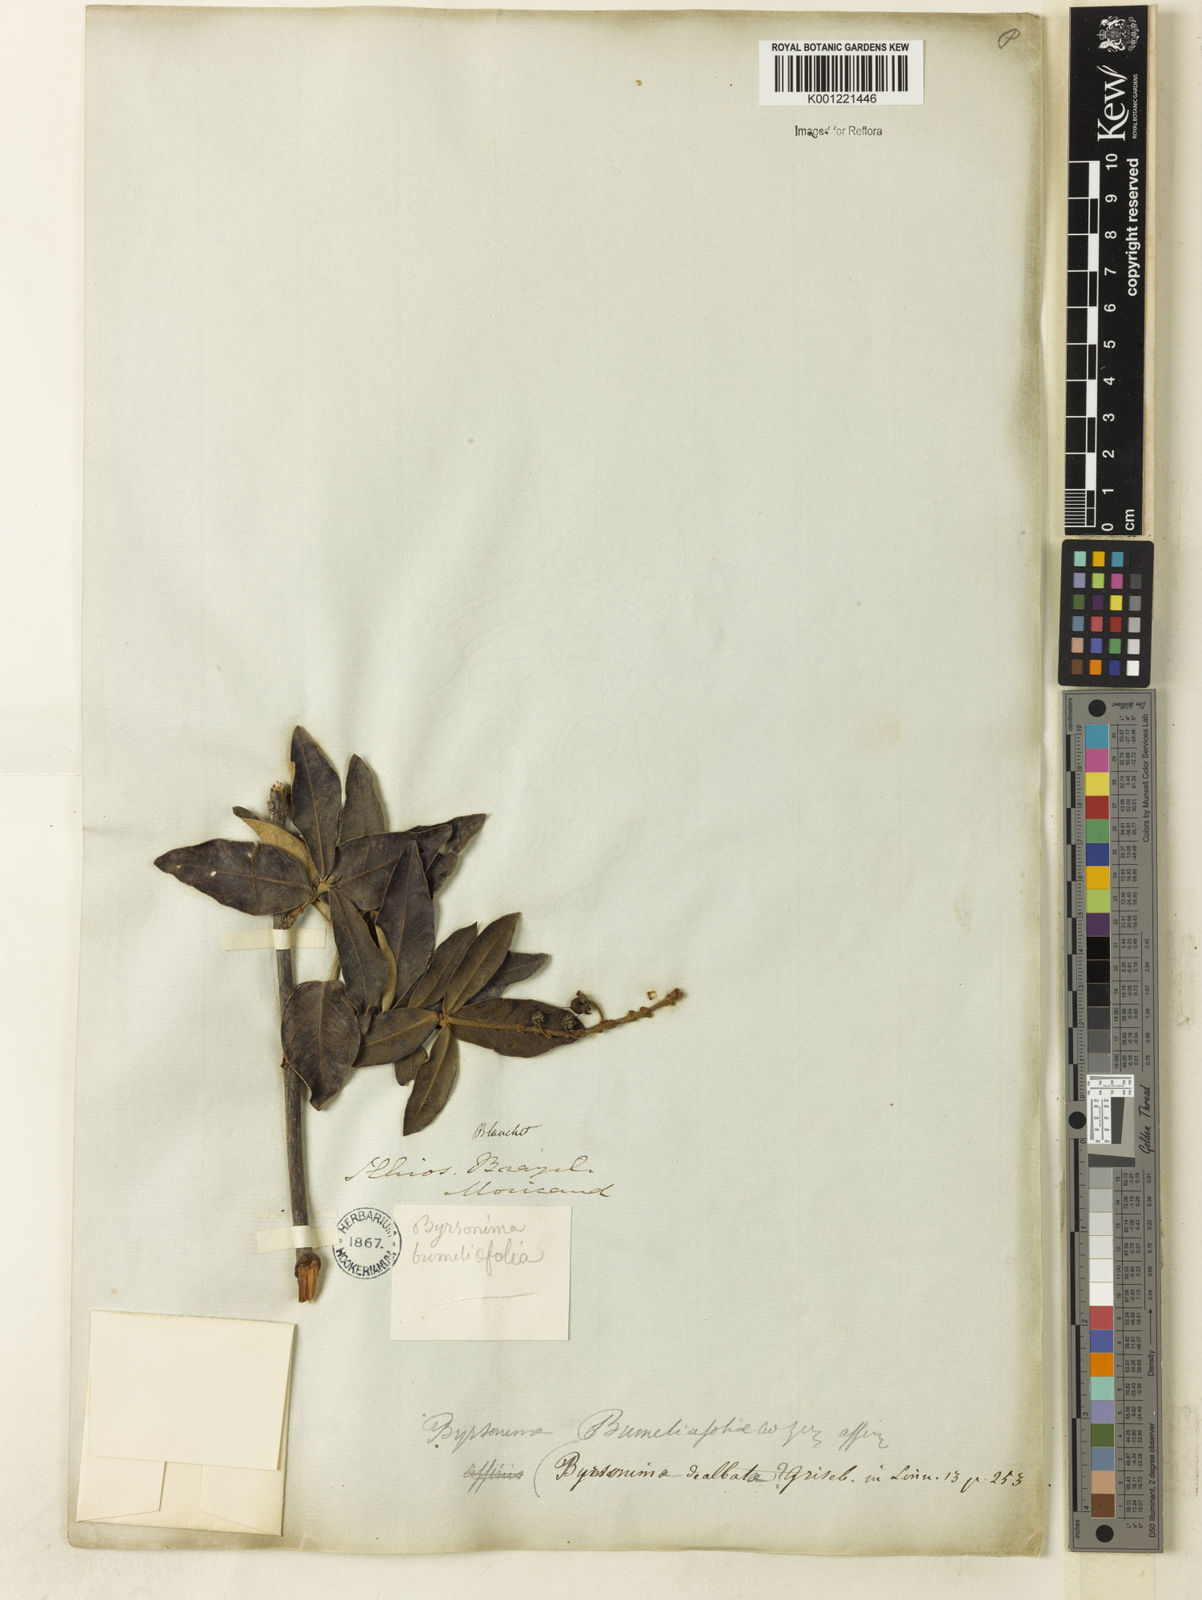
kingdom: Plantae
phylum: Tracheophyta
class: Magnoliopsida
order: Malpighiales
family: Malpighiaceae
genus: Byrsonima
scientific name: Byrsonima dealbata
